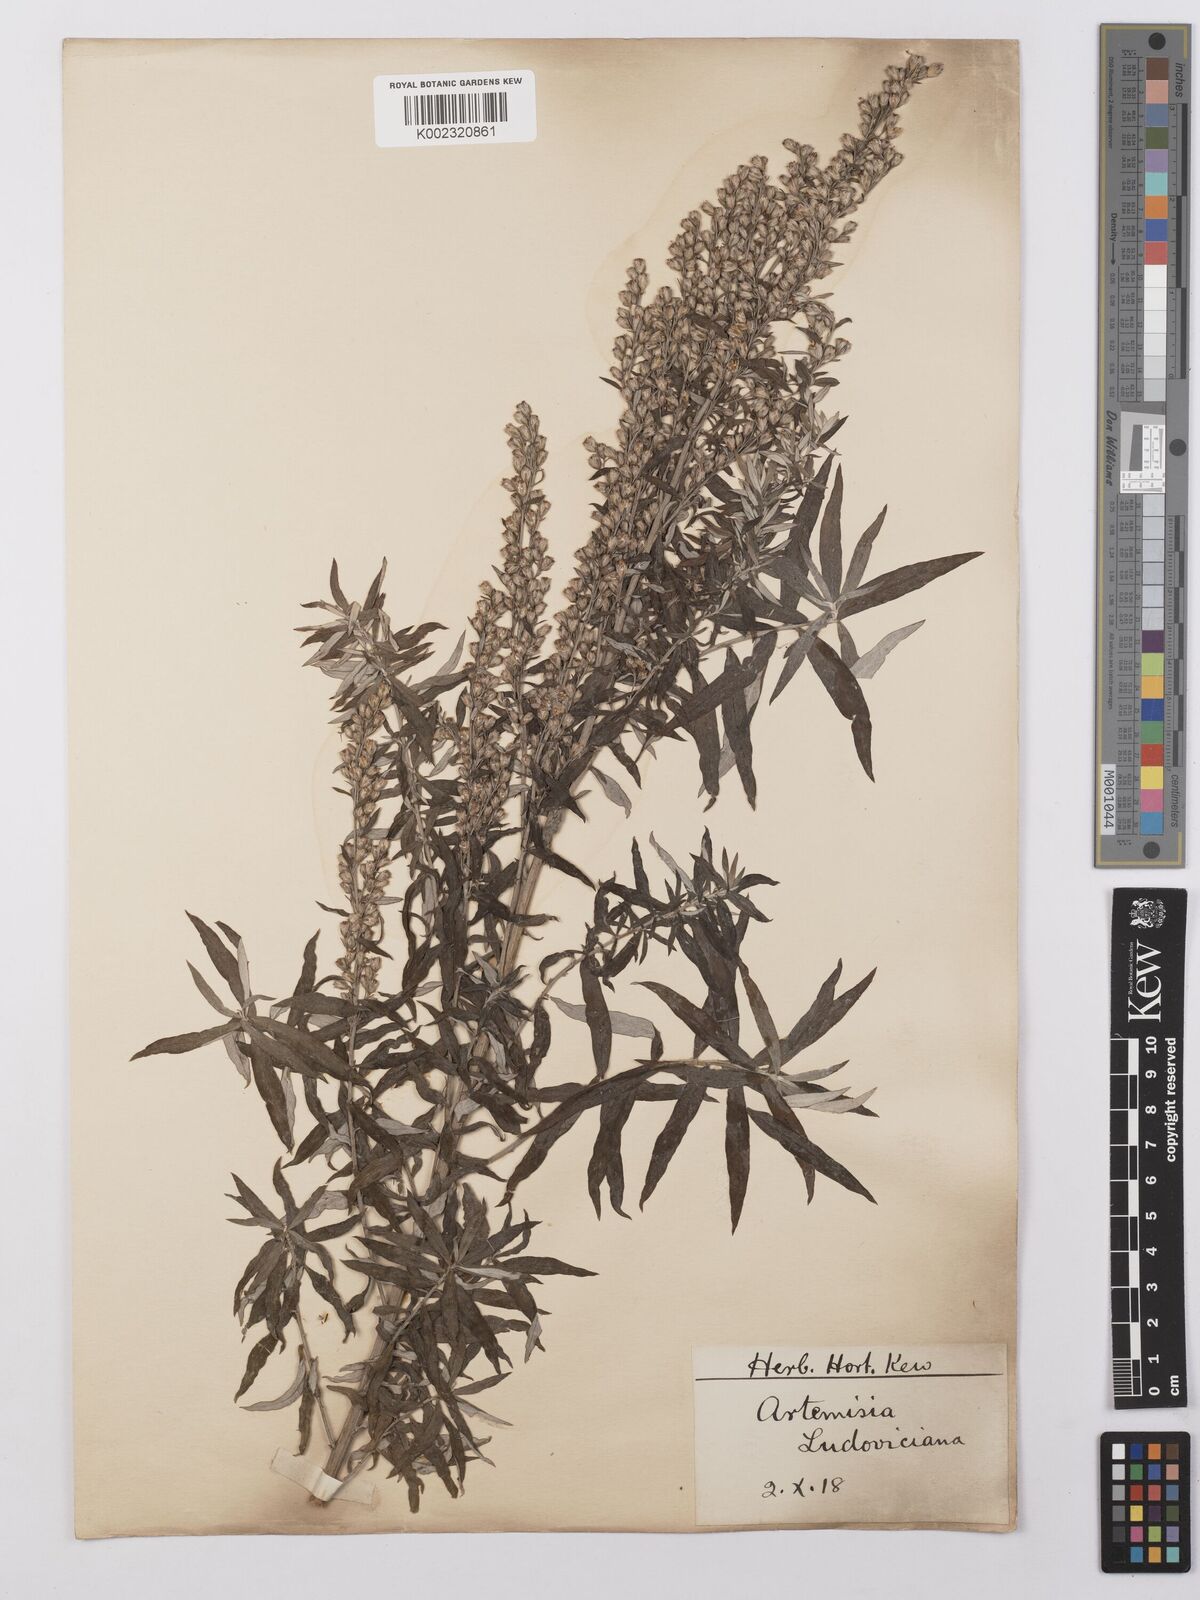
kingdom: Plantae
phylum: Tracheophyta
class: Magnoliopsida
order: Asterales
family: Asteraceae
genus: Artemisia
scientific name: Artemisia ludoviciana
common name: Western mugwort
